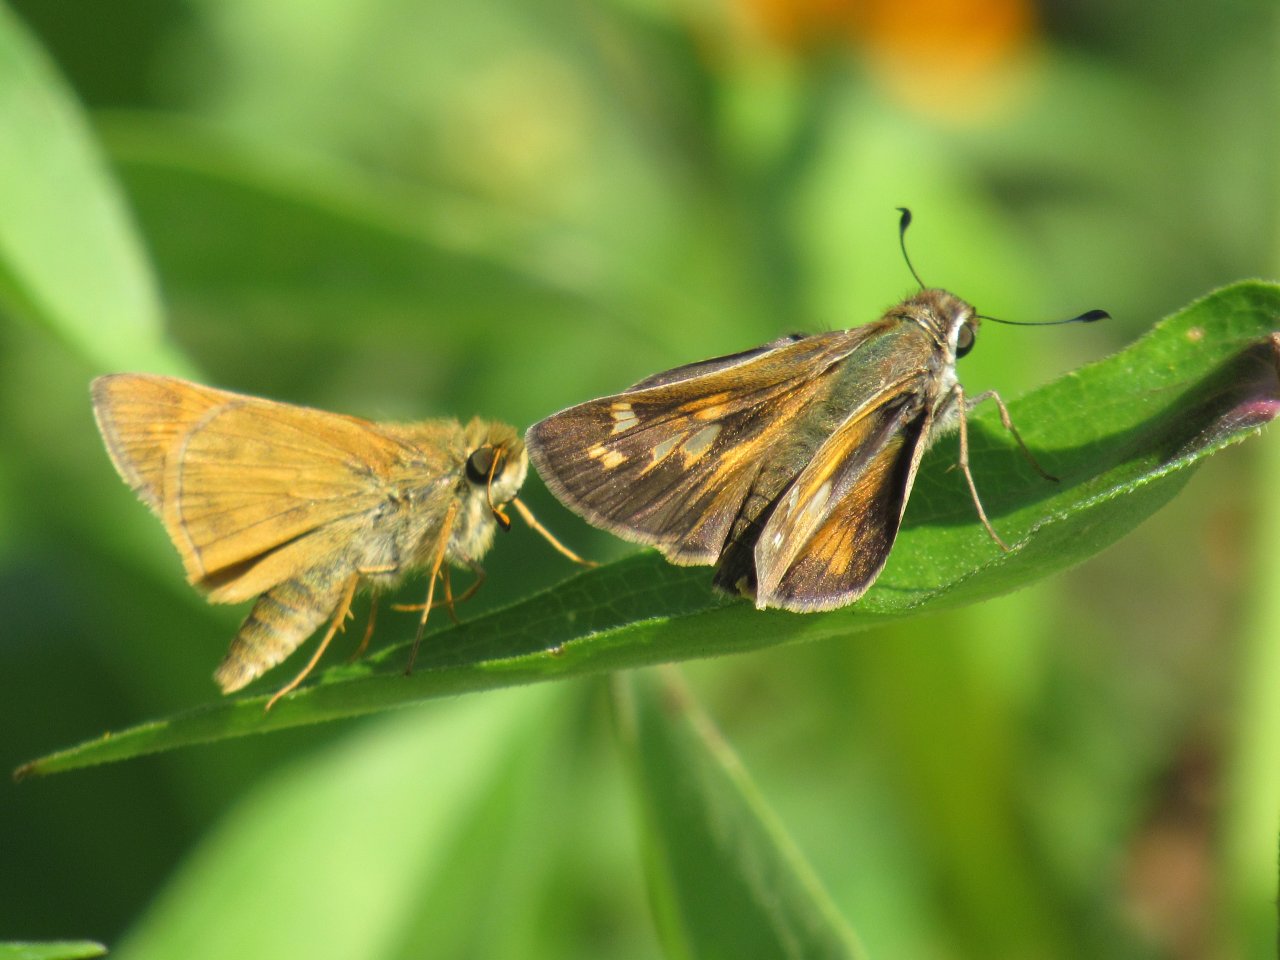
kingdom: Animalia
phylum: Arthropoda
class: Insecta
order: Lepidoptera
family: Hesperiidae
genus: Atalopedes
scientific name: Atalopedes campestris
